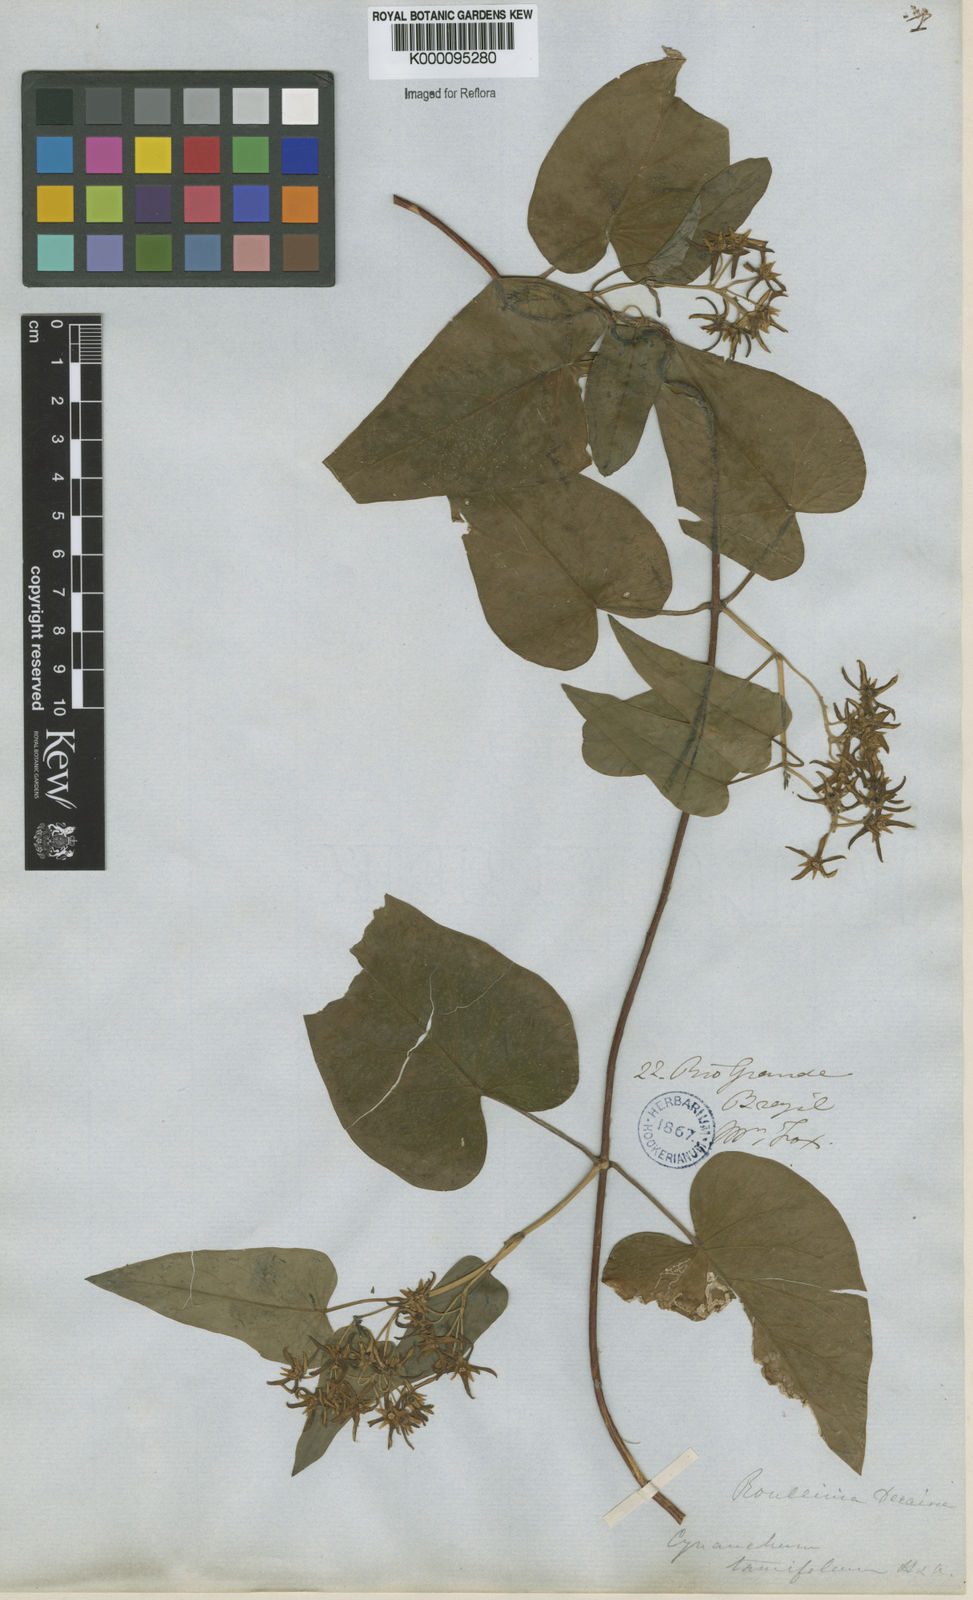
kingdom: Plantae
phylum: Tracheophyta
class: Magnoliopsida
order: Gentianales
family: Apocynaceae
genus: Cynanchum
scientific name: Cynanchum montevidense
